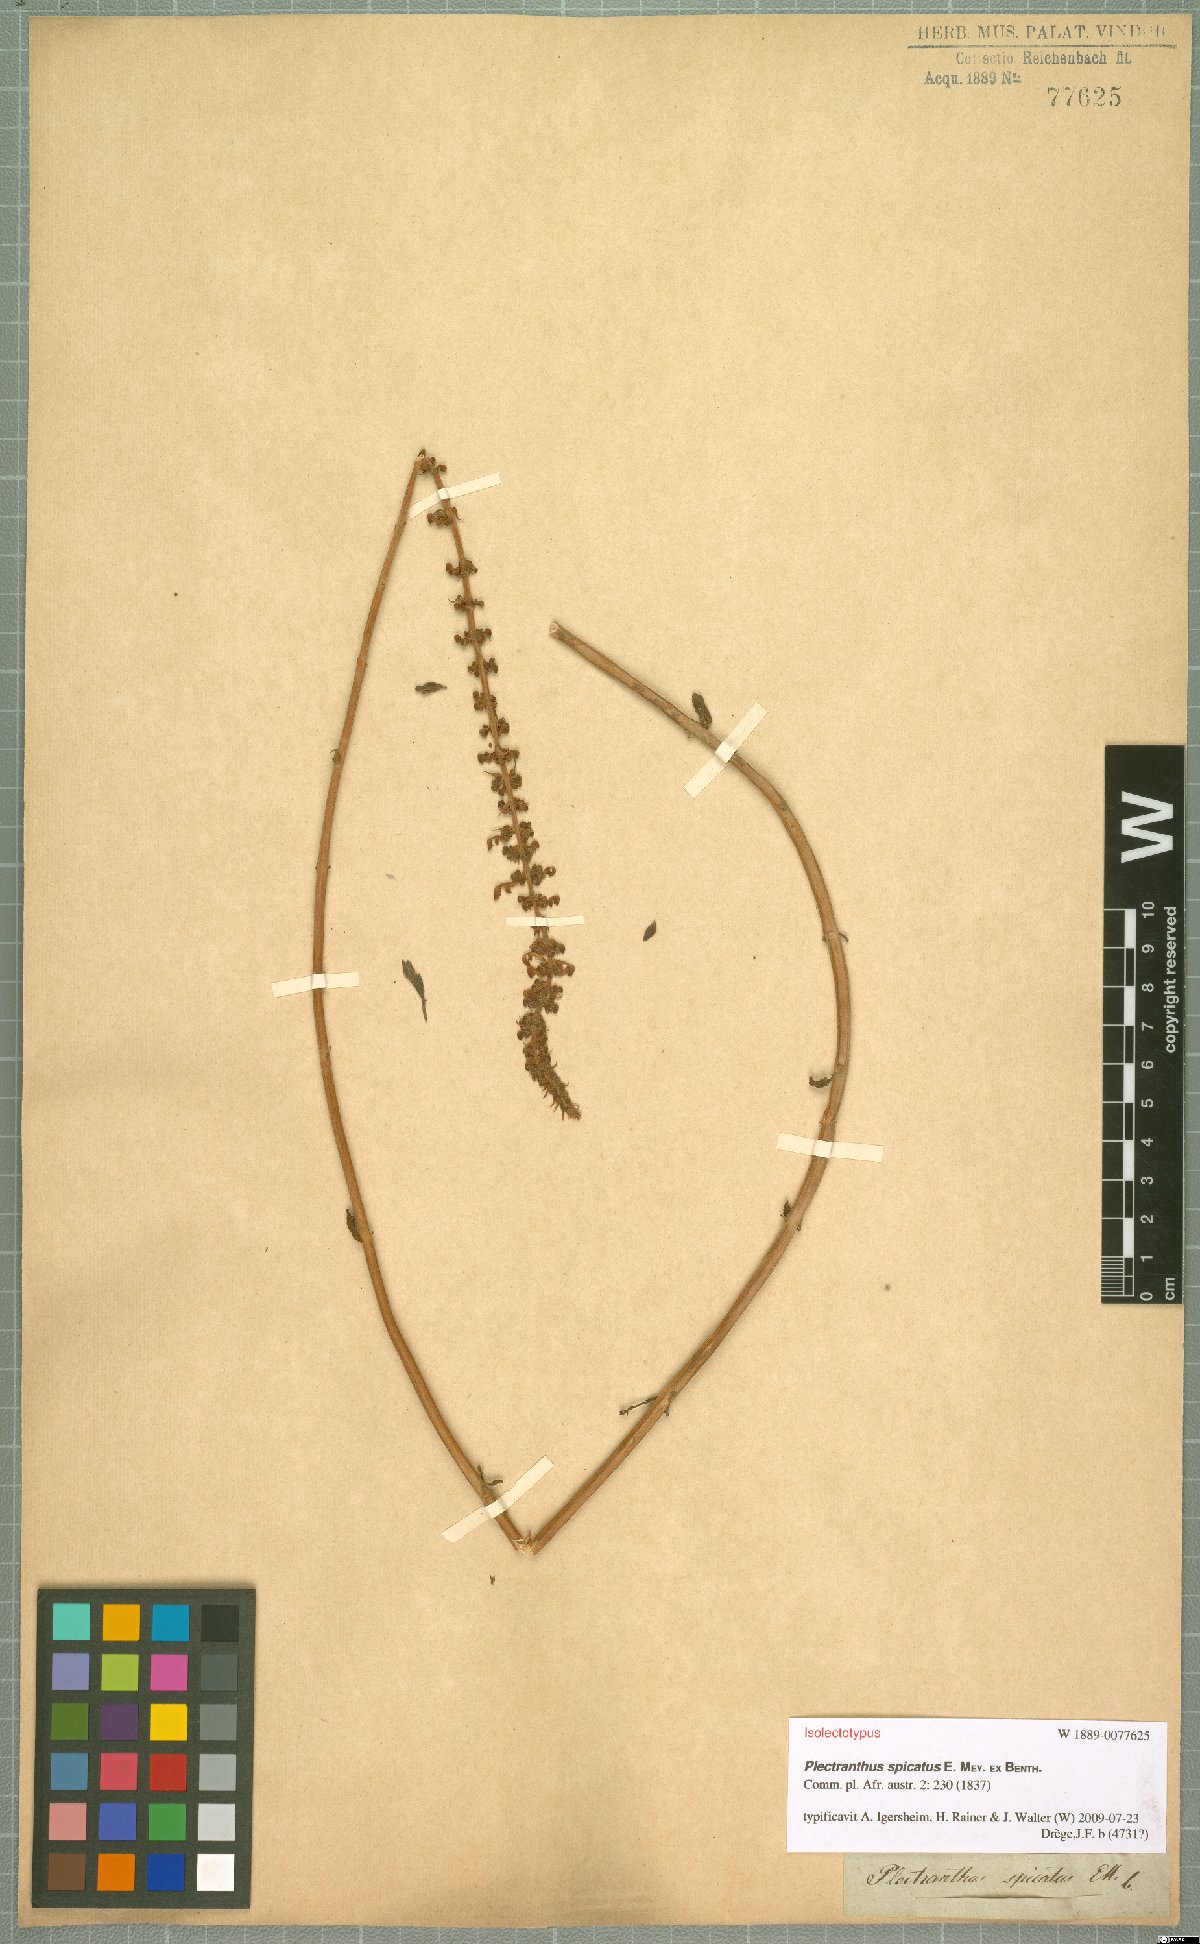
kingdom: Plantae
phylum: Tracheophyta
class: Magnoliopsida
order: Lamiales
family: Lamiaceae
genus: Coleus
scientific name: Coleus subspicatus
